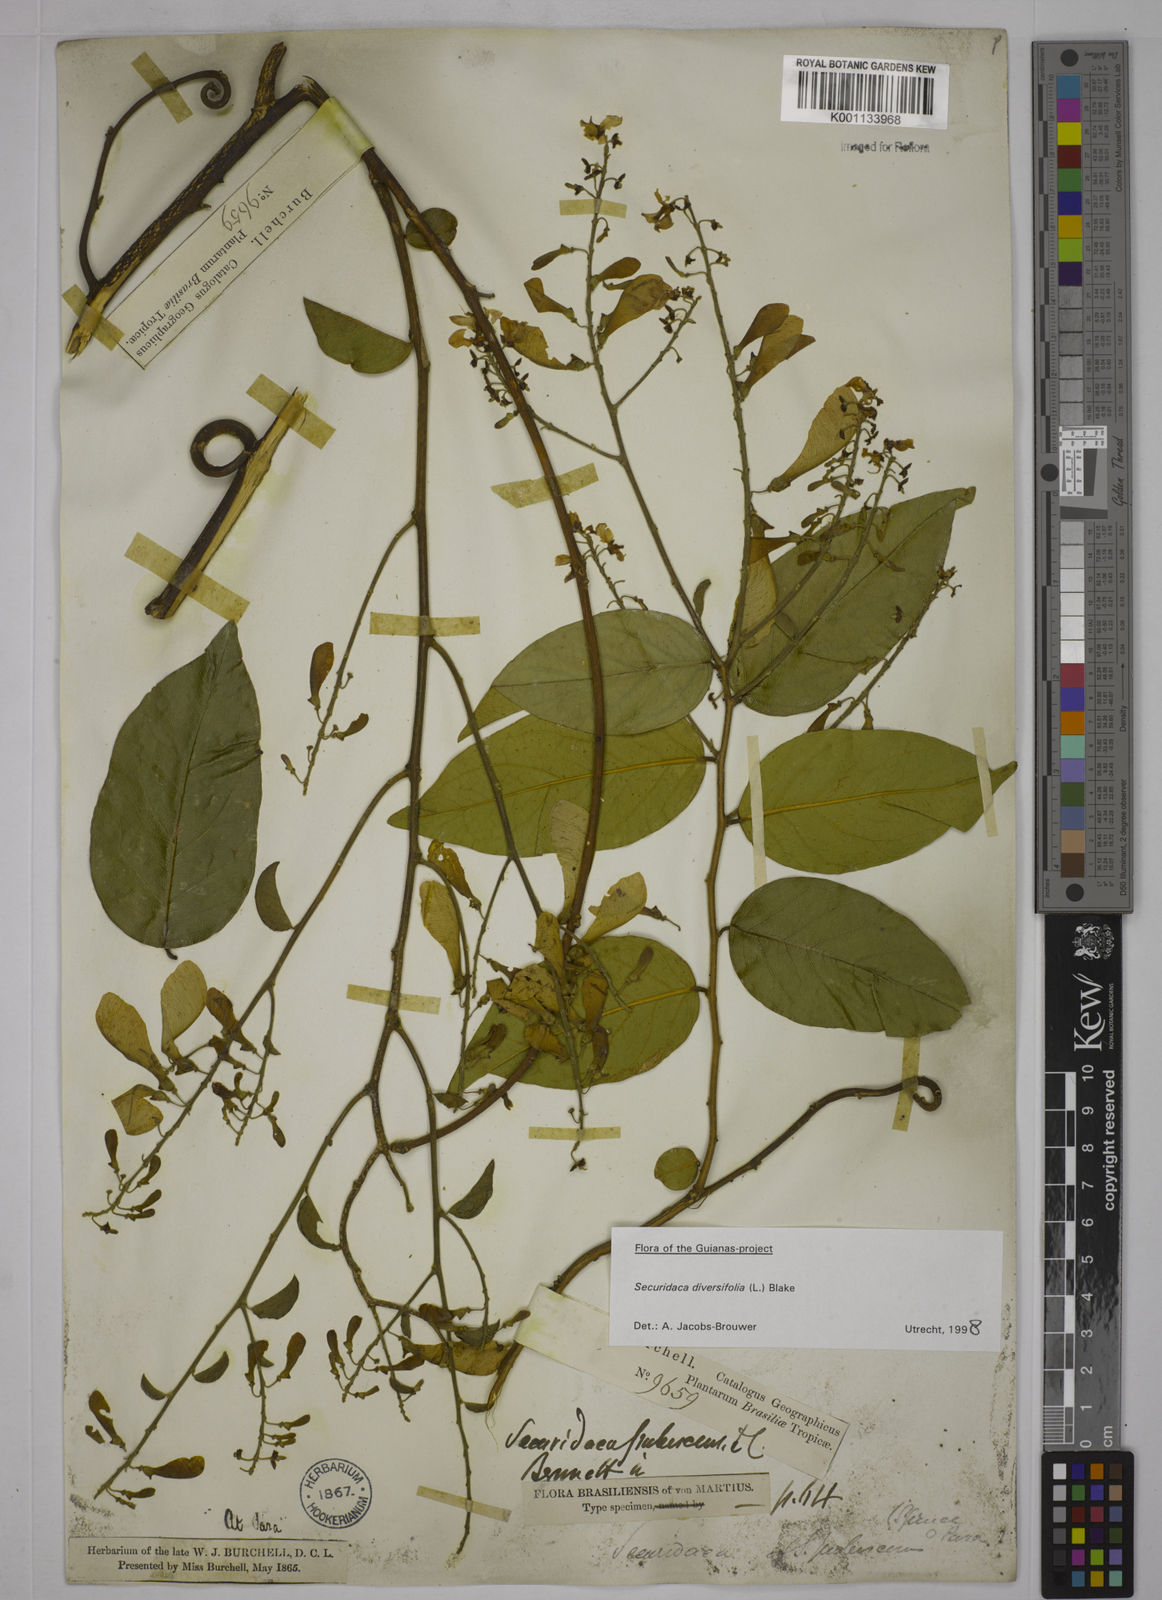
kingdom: Plantae
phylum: Tracheophyta
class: Magnoliopsida
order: Fabales
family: Polygalaceae
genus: Securidaca
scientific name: Securidaca diversifolia
